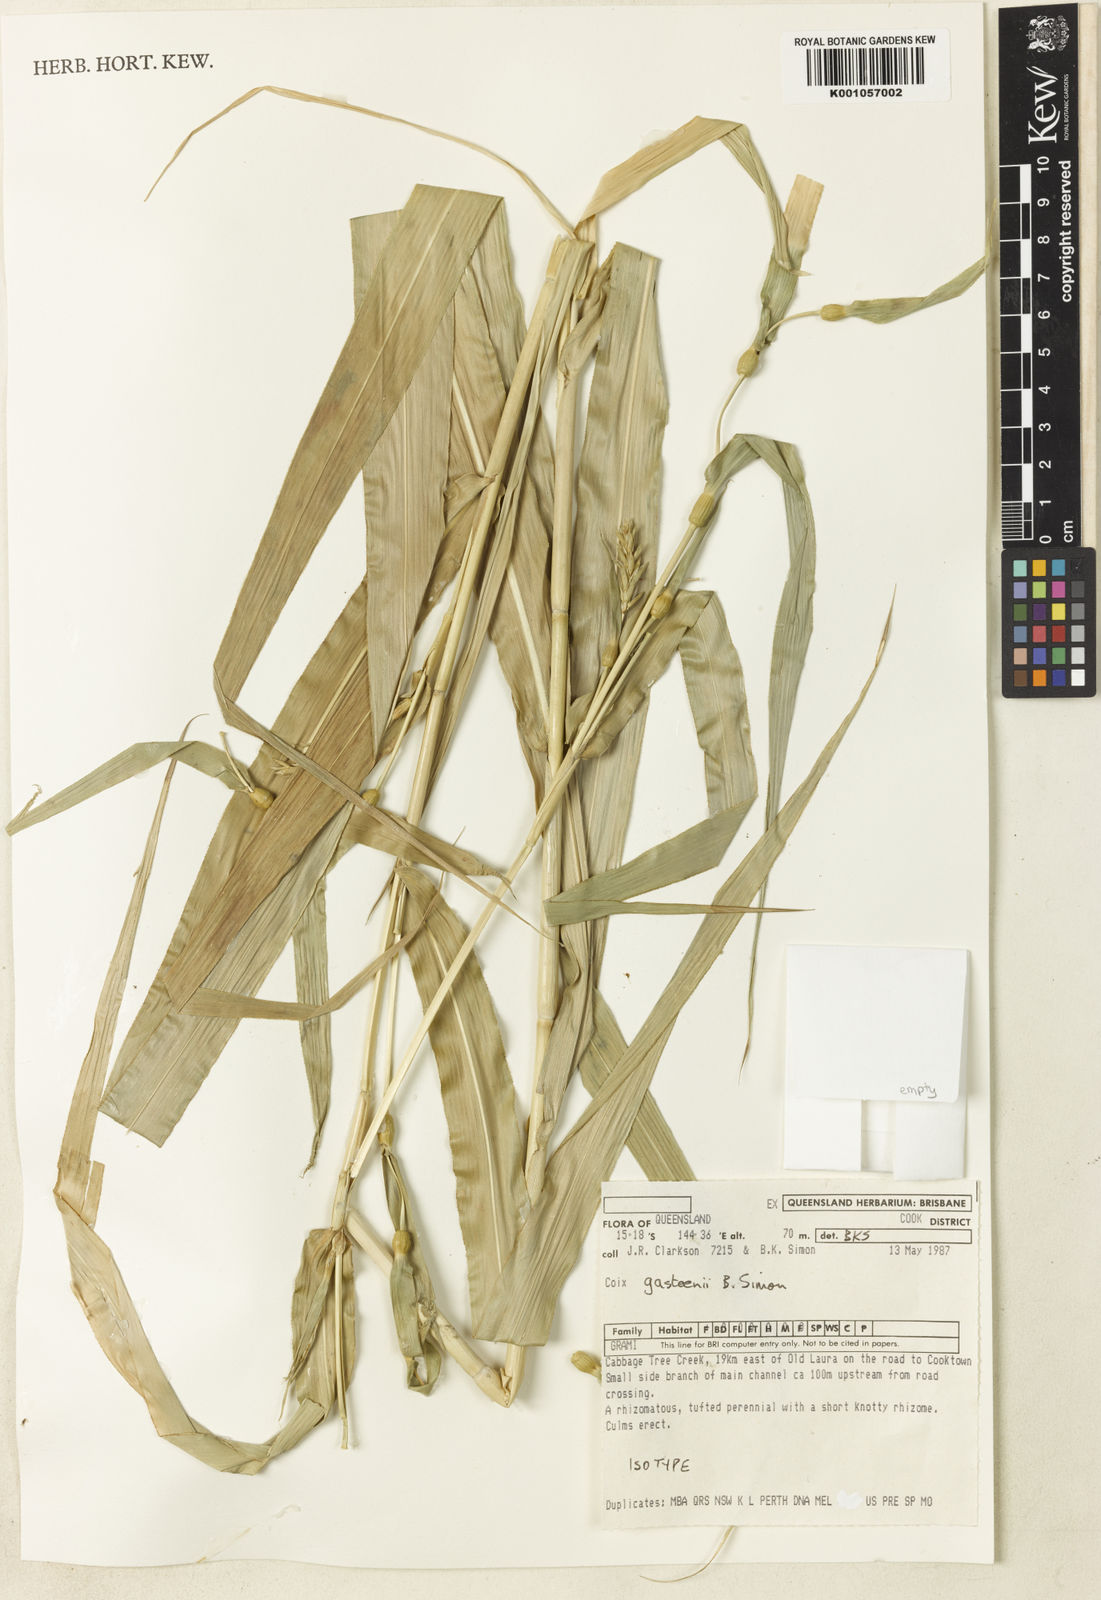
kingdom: Plantae
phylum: Tracheophyta
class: Liliopsida
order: Poales
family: Poaceae
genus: Coix
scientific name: Coix gasteenii
